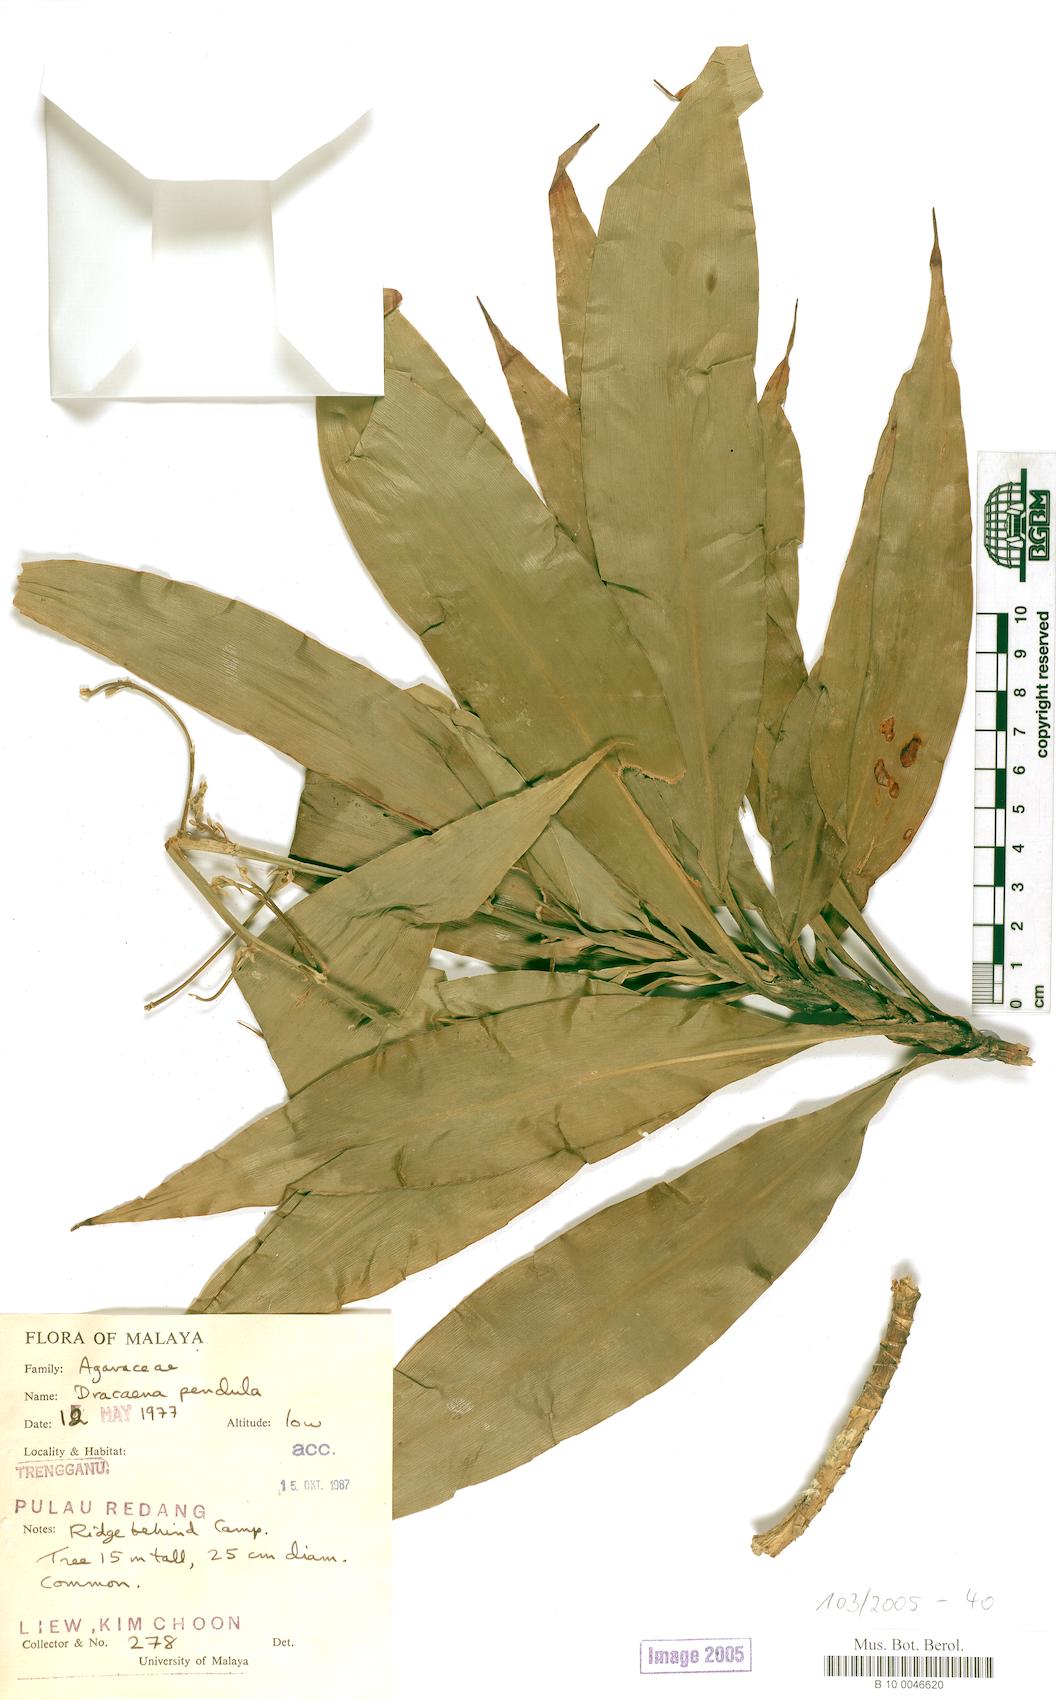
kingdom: Plantae
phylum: Tracheophyta
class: Liliopsida
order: Asparagales
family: Asparagaceae
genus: Dracaena
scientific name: Dracaena pendula
